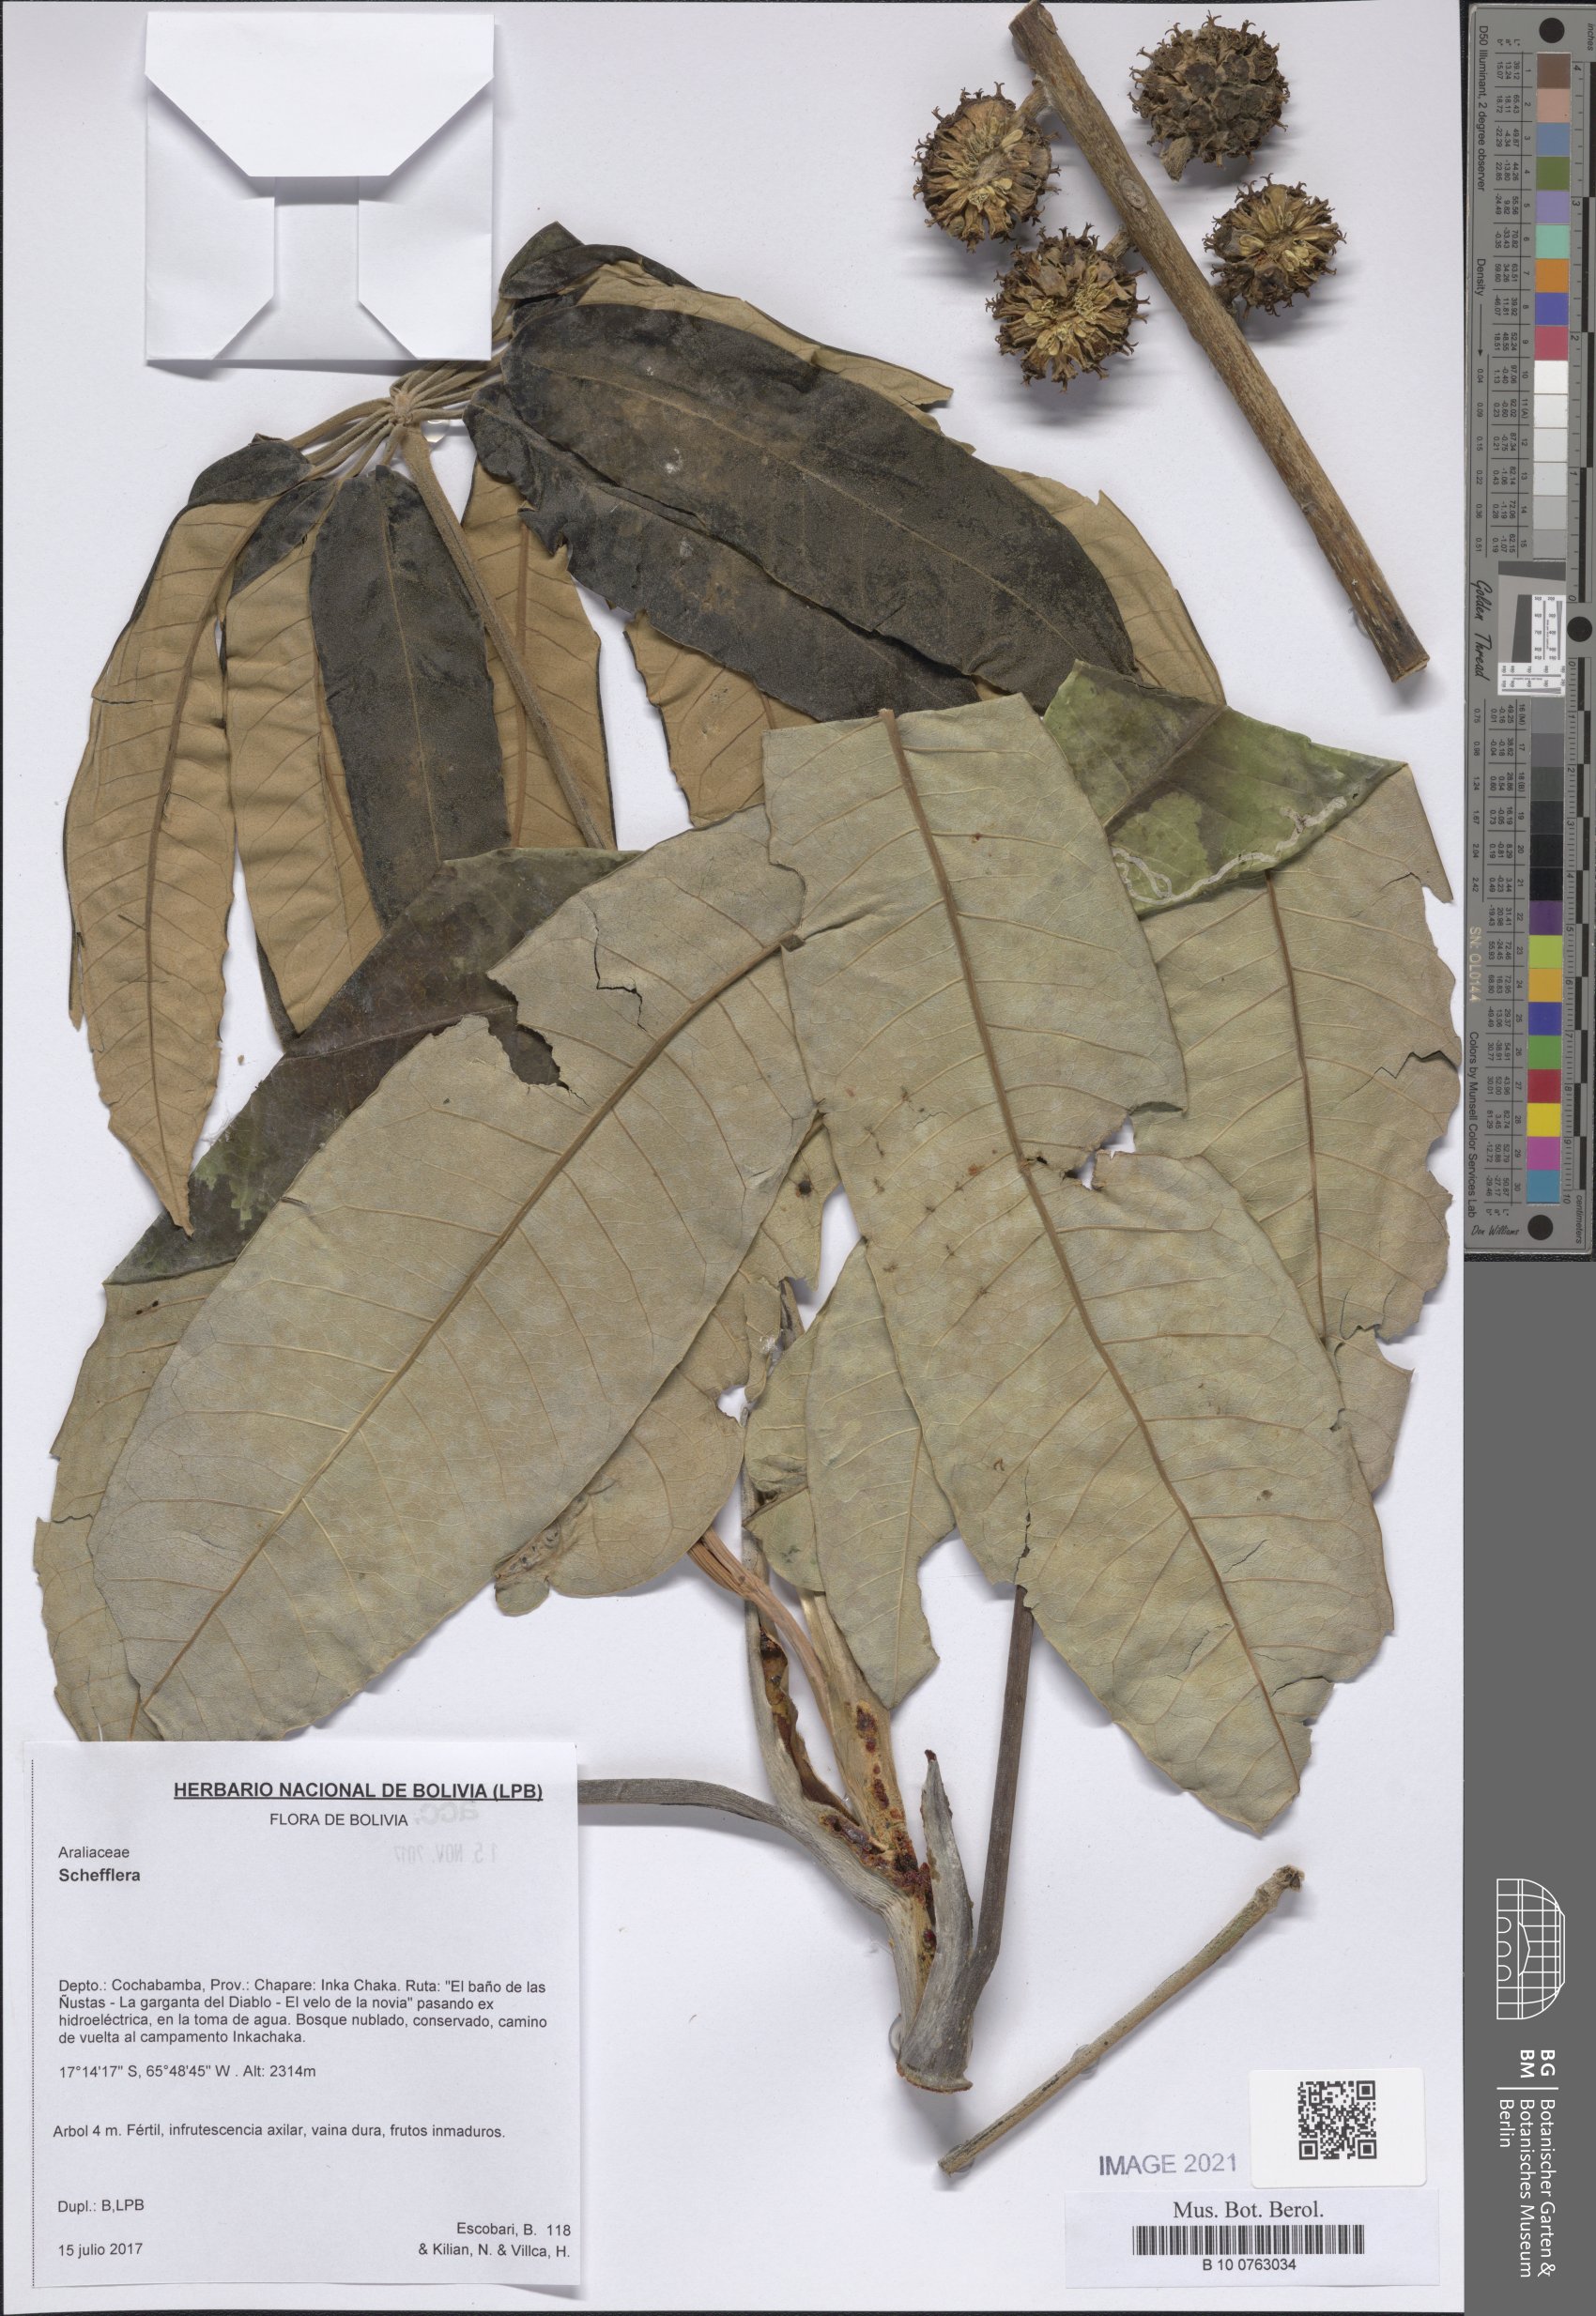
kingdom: Plantae
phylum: Tracheophyta
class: Magnoliopsida
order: Apiales
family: Araliaceae
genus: Schefflera
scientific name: Schefflera
